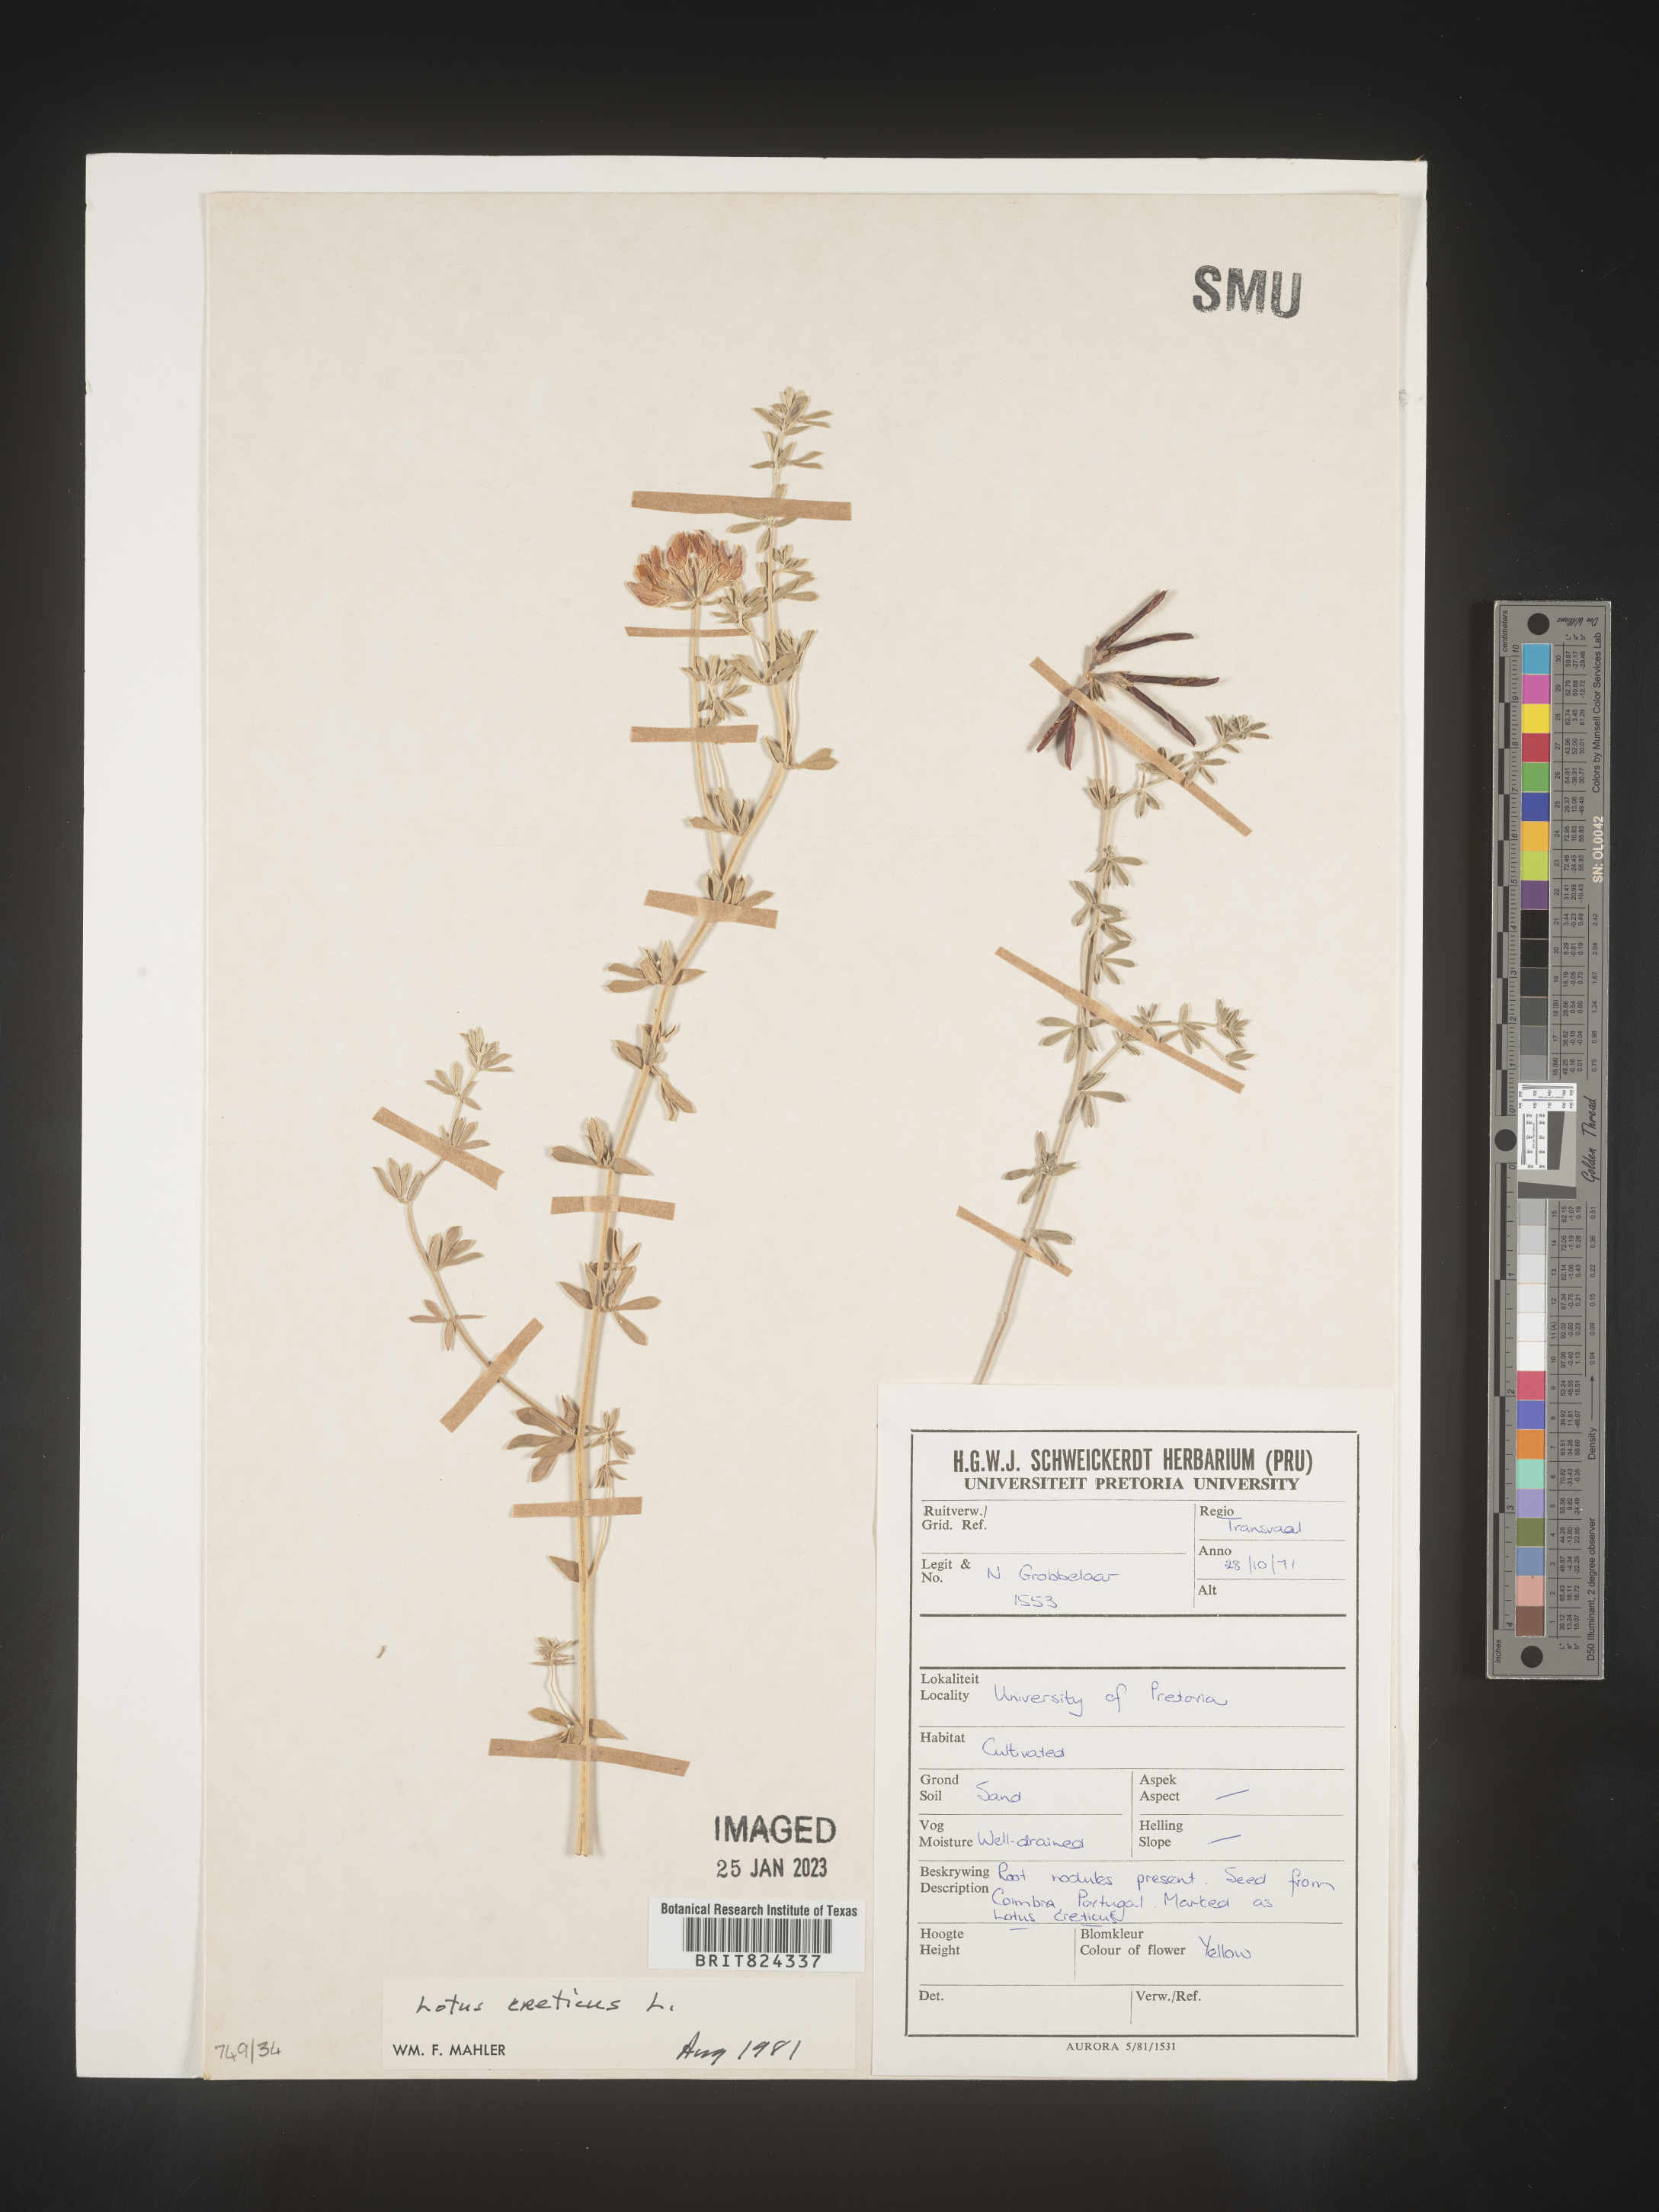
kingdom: Plantae
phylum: Tracheophyta
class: Magnoliopsida
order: Fabales
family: Fabaceae
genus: Lotus
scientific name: Lotus
